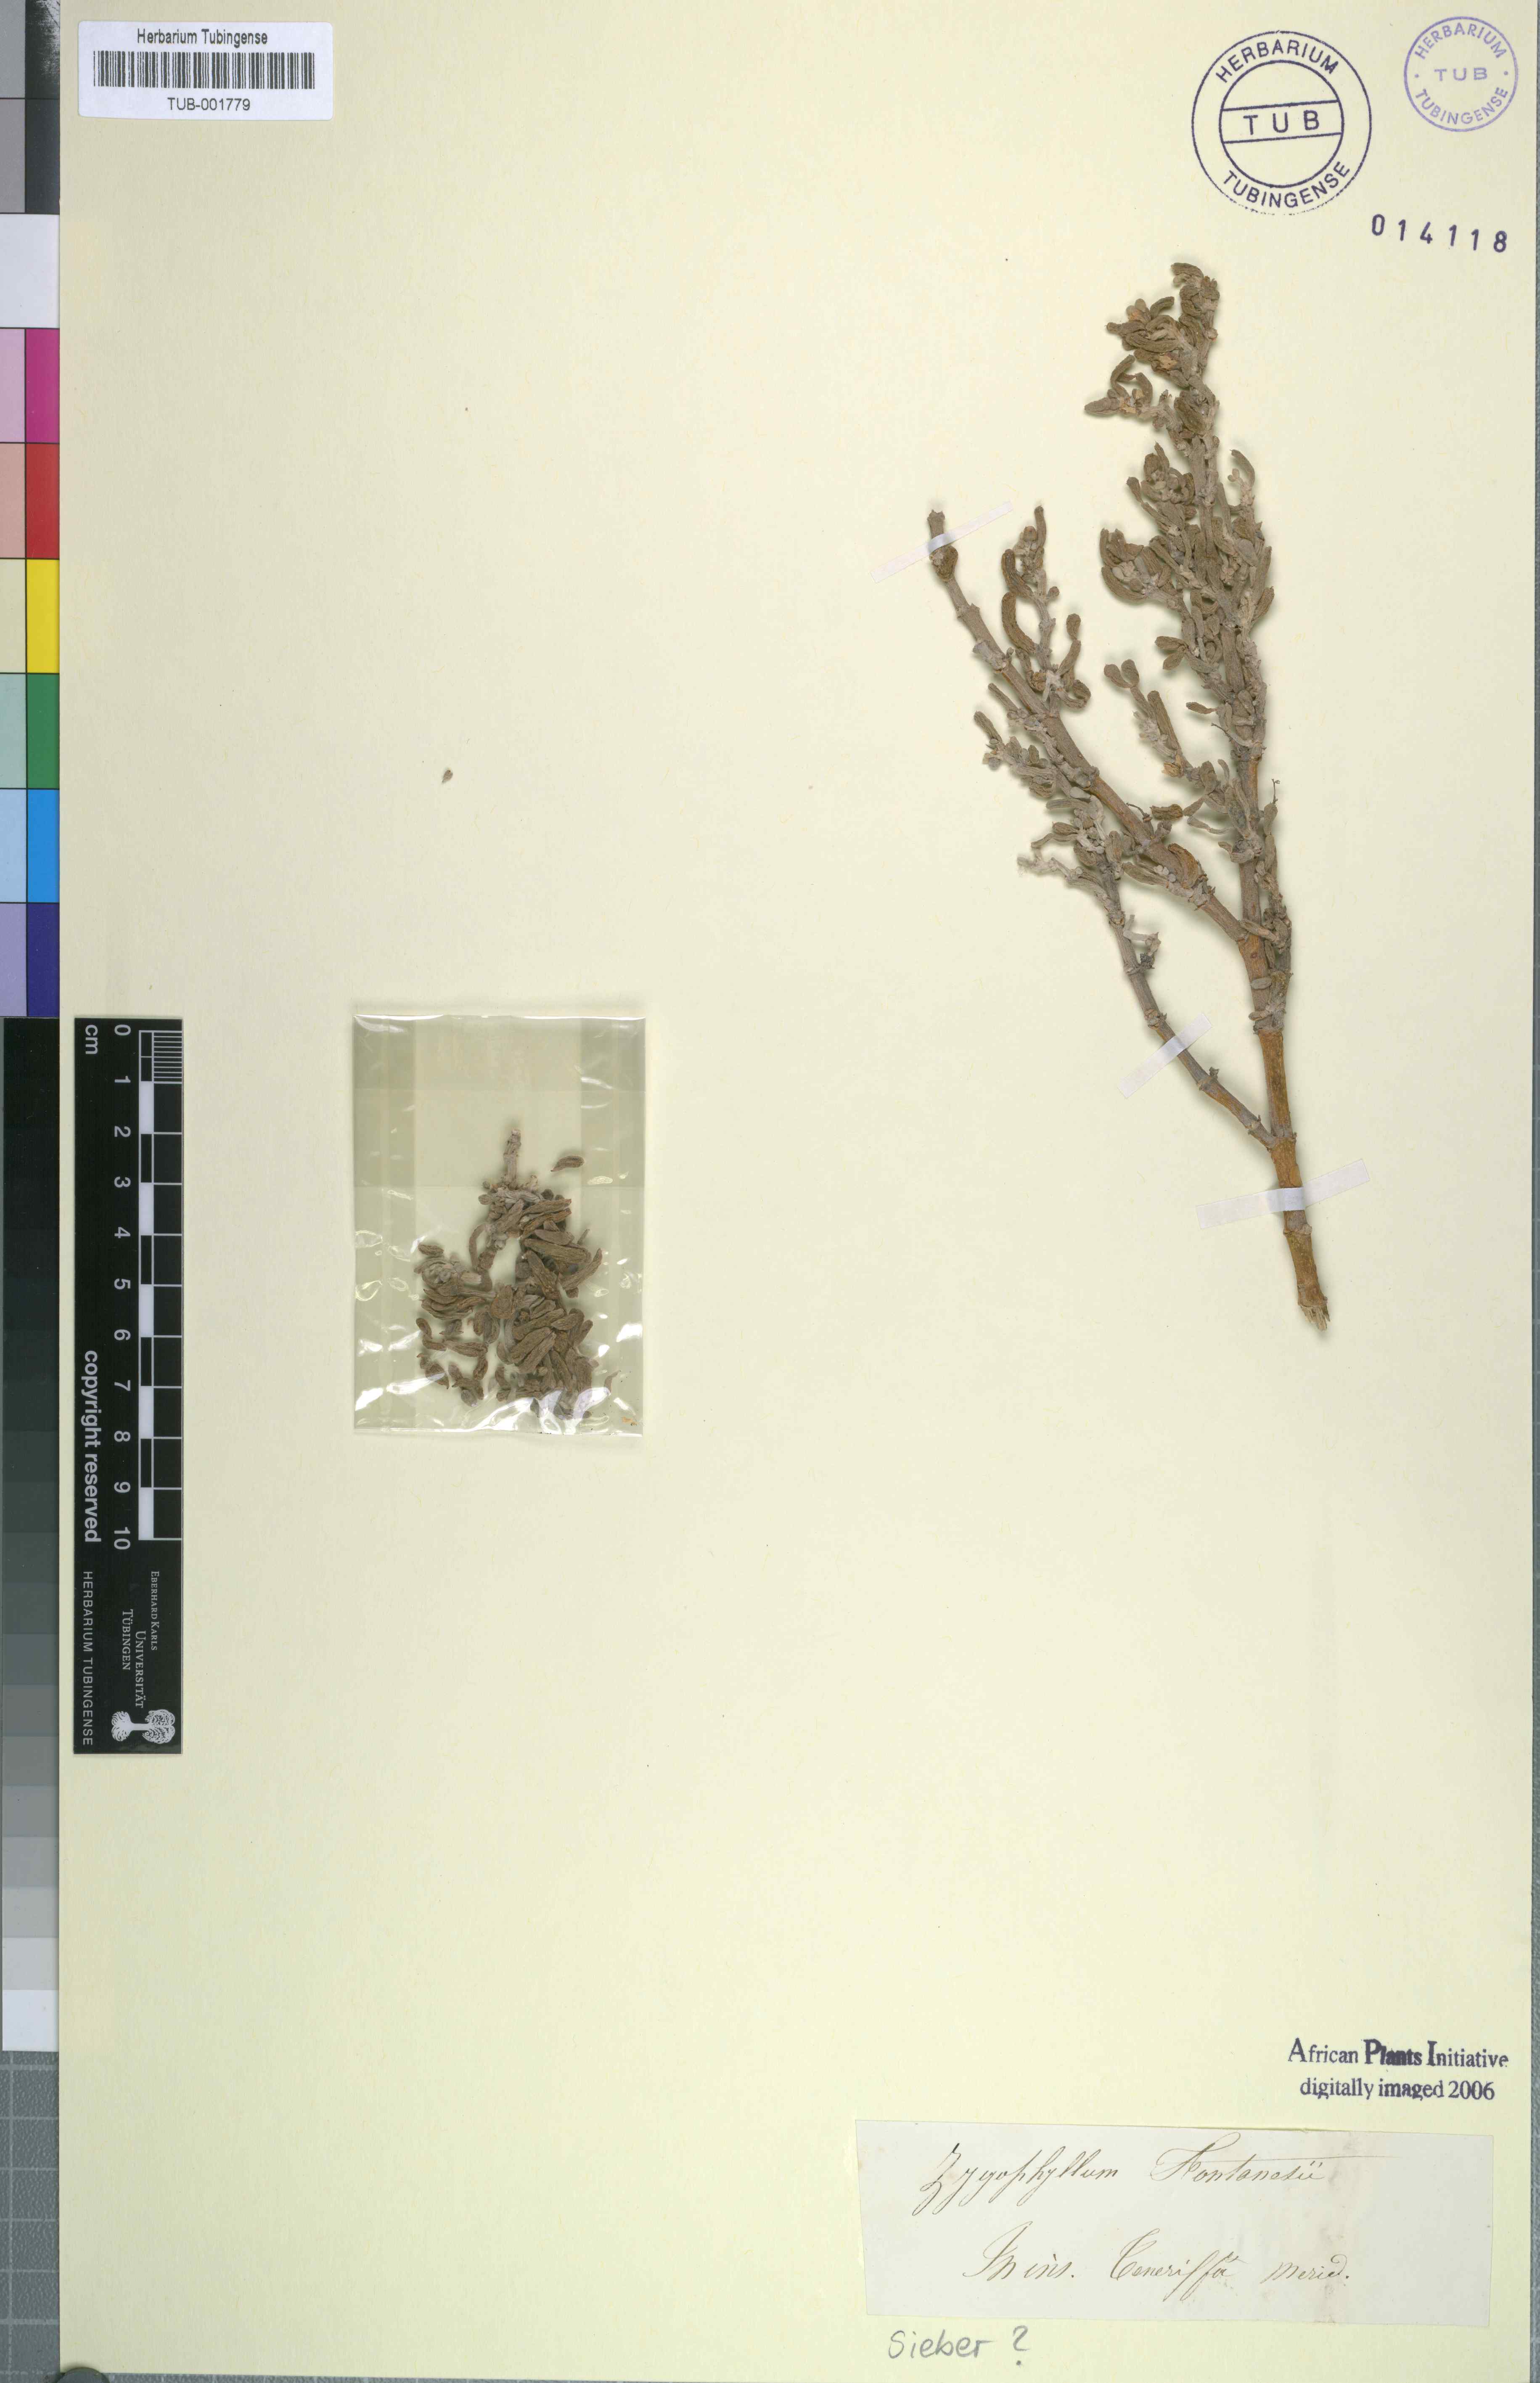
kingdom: Plantae
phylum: Tracheophyta
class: Magnoliopsida
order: Zygophyllales
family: Zygophyllaceae
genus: Tetraena
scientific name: Tetraena fontanesii
